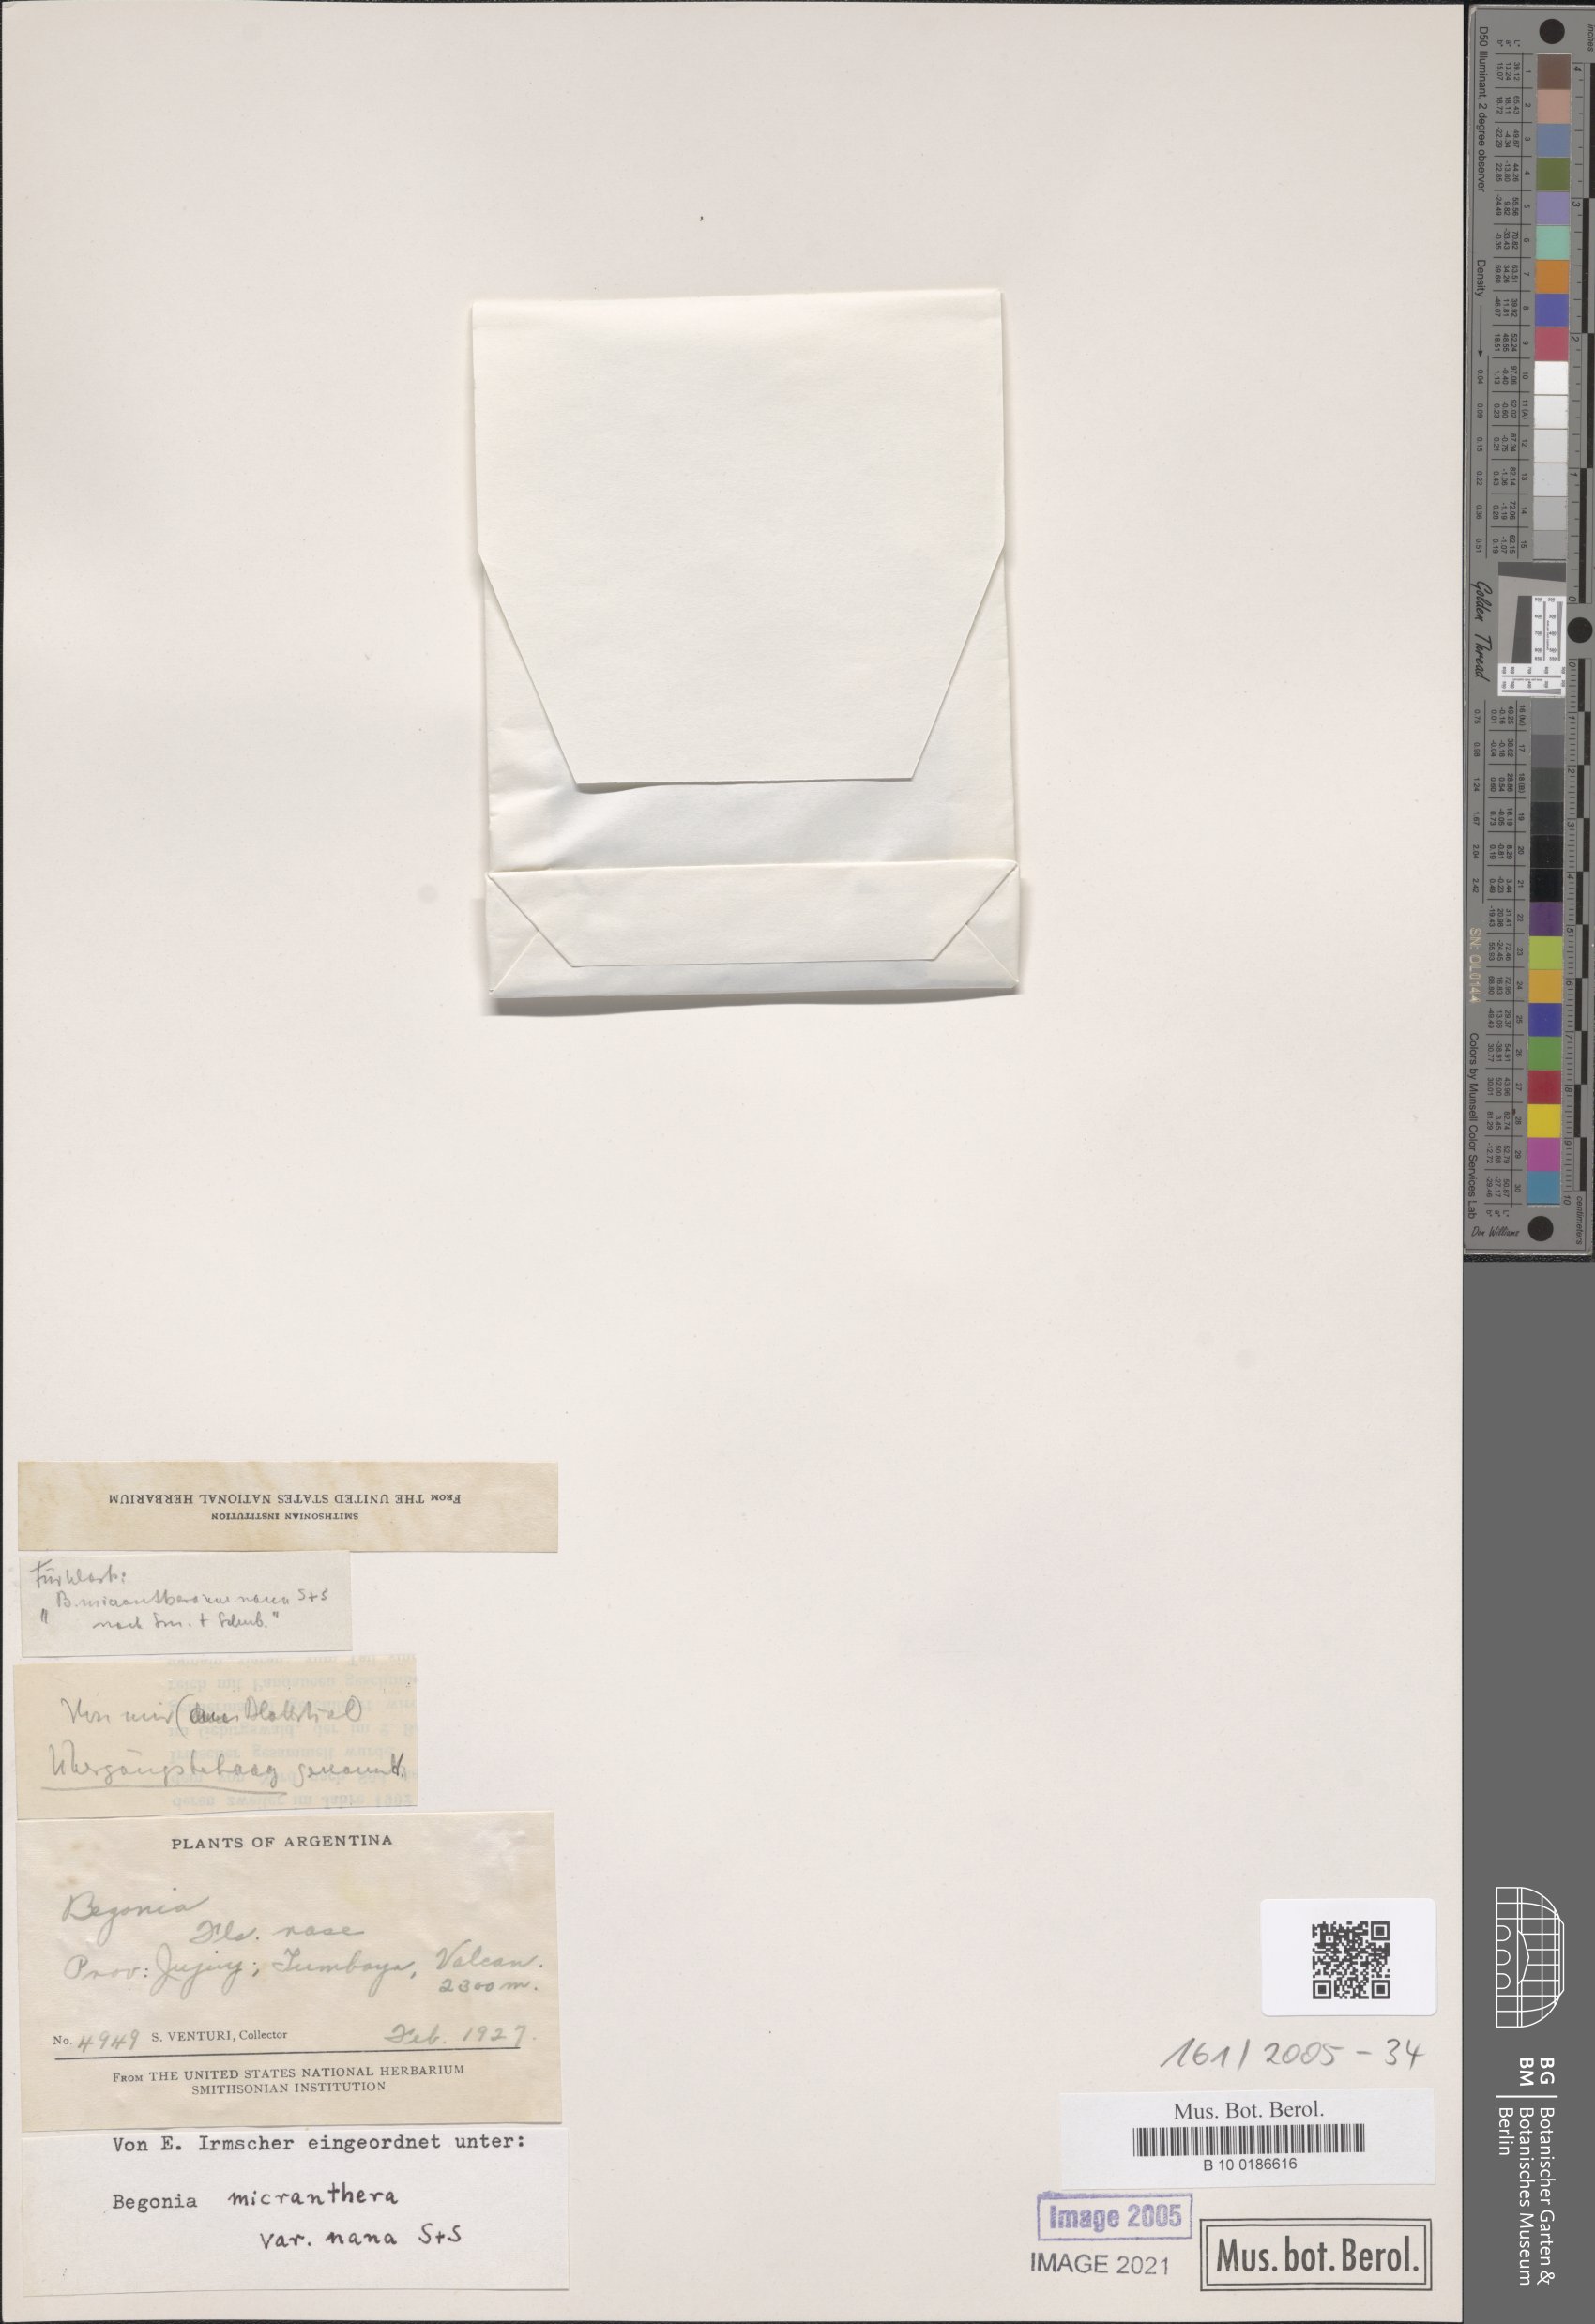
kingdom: Plantae
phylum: Tracheophyta
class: Magnoliopsida
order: Cucurbitales
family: Begoniaceae
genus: Begonia
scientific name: Begonia micranthera
